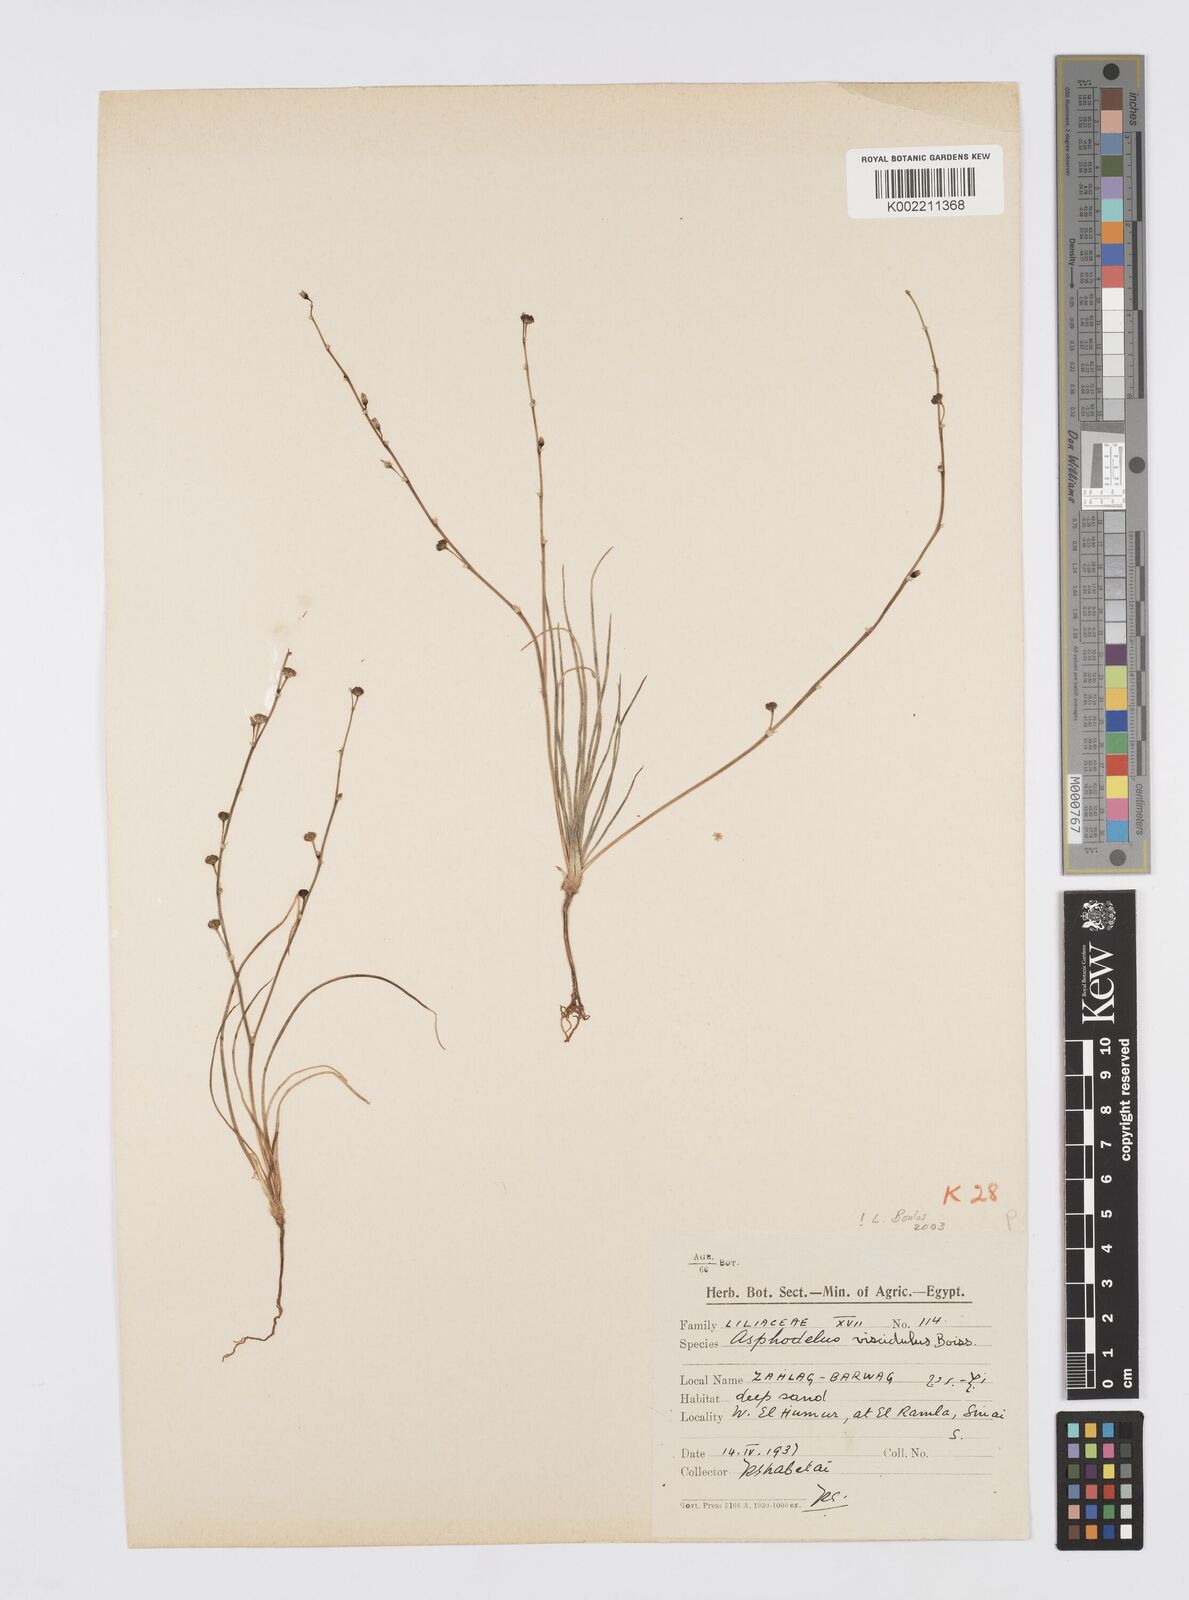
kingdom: Plantae
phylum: Tracheophyta
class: Liliopsida
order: Asparagales
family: Asphodelaceae
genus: Asphodelus
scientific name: Asphodelus viscidulus
